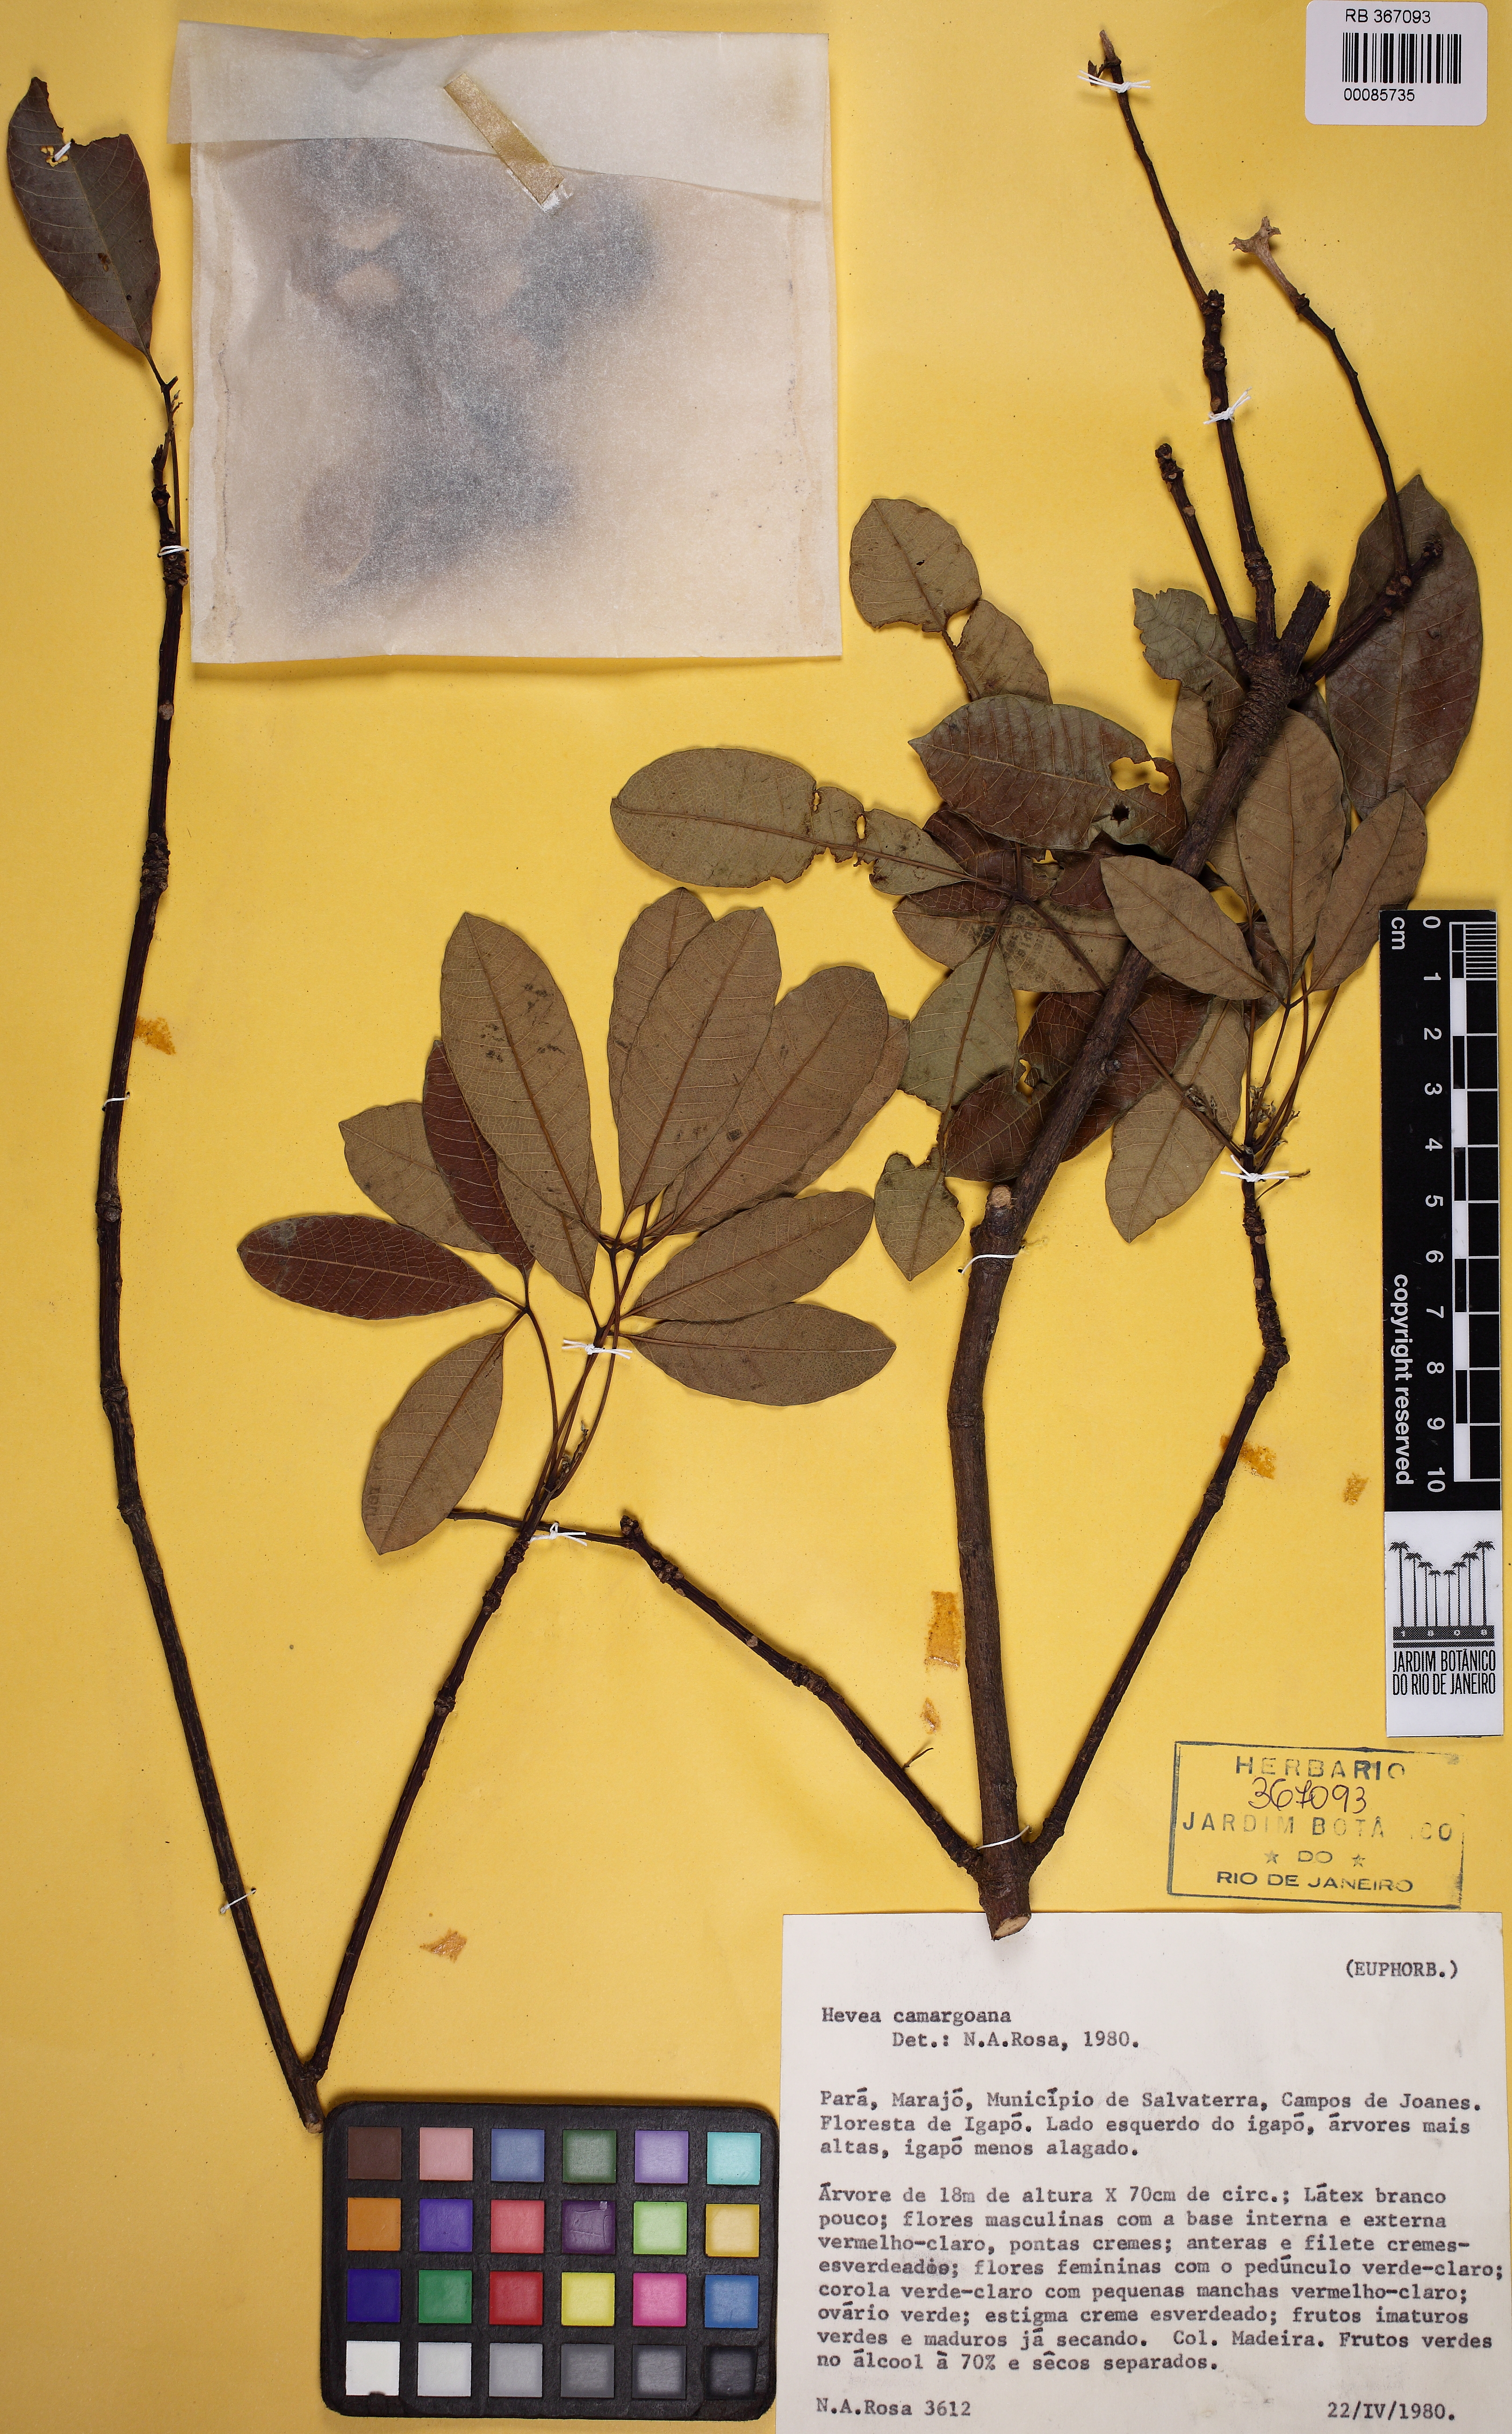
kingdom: Plantae
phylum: Tracheophyta
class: Magnoliopsida
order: Malpighiales
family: Euphorbiaceae
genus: Hevea
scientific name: Hevea camargoana
